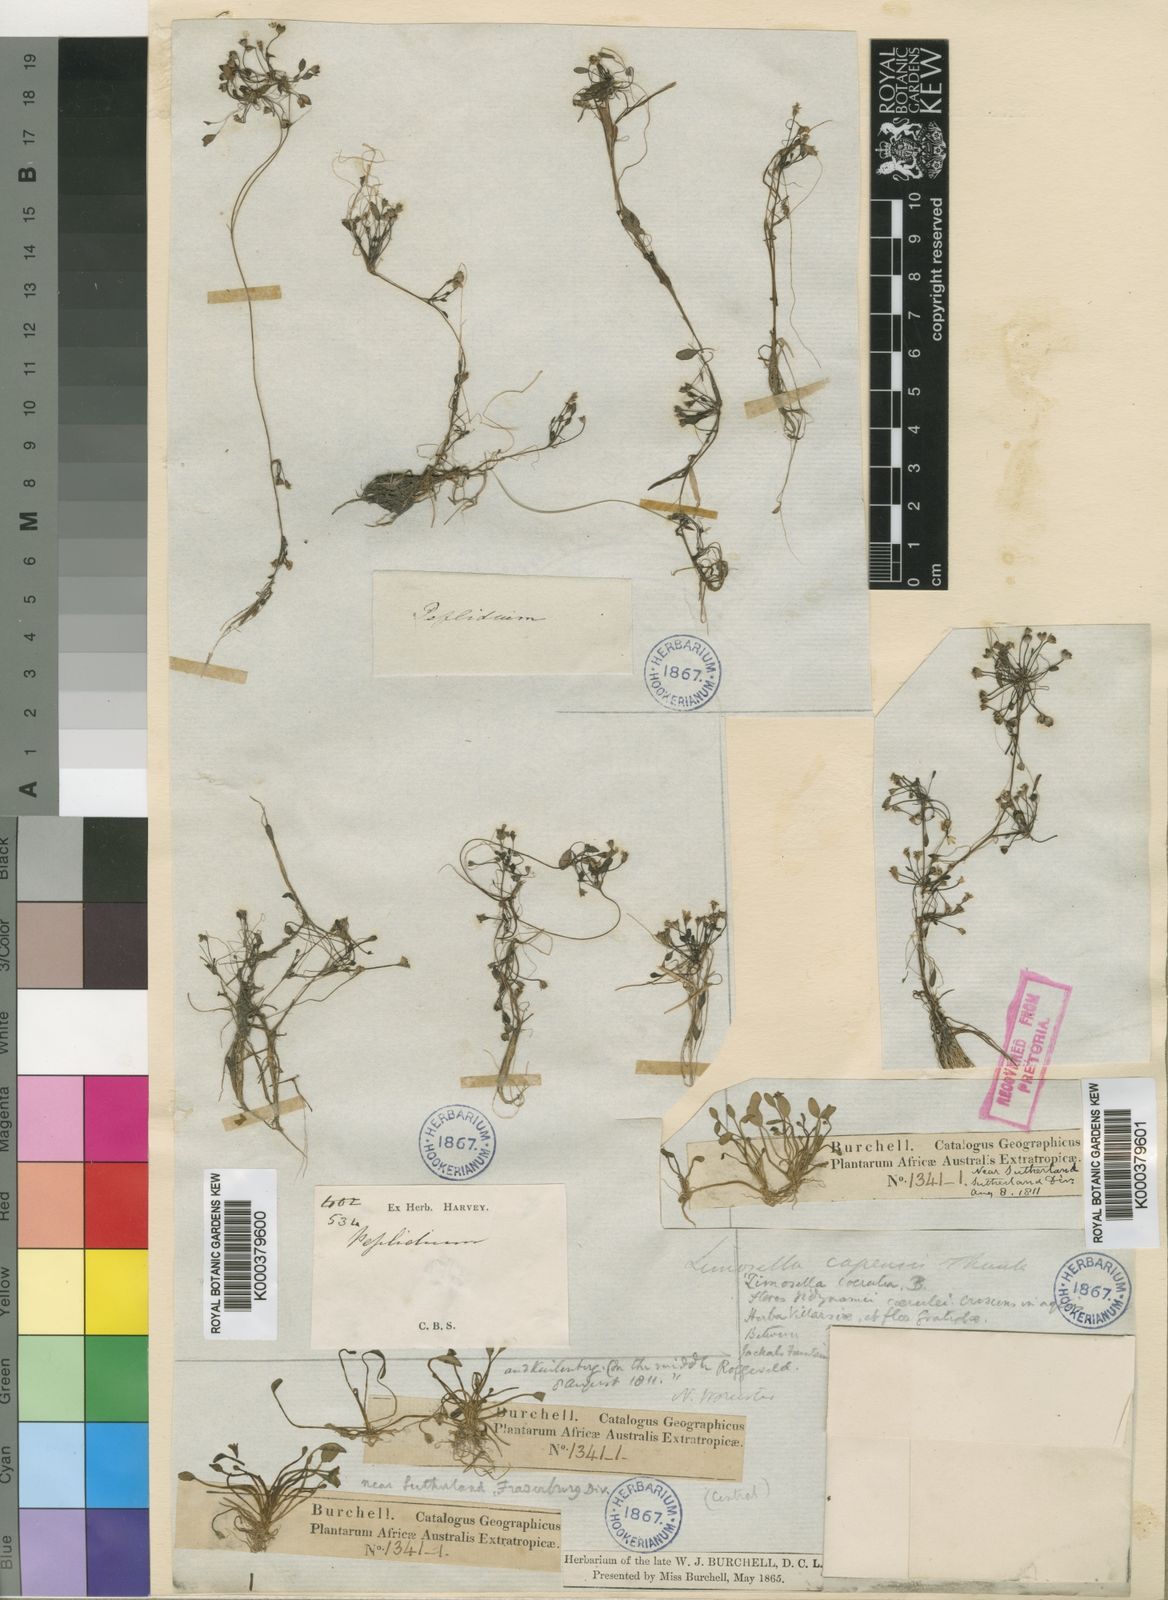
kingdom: Plantae
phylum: Tracheophyta
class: Magnoliopsida
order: Lamiales
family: Scrophulariaceae
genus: Limosella
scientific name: Limosella australis
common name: Welsh mudwort
